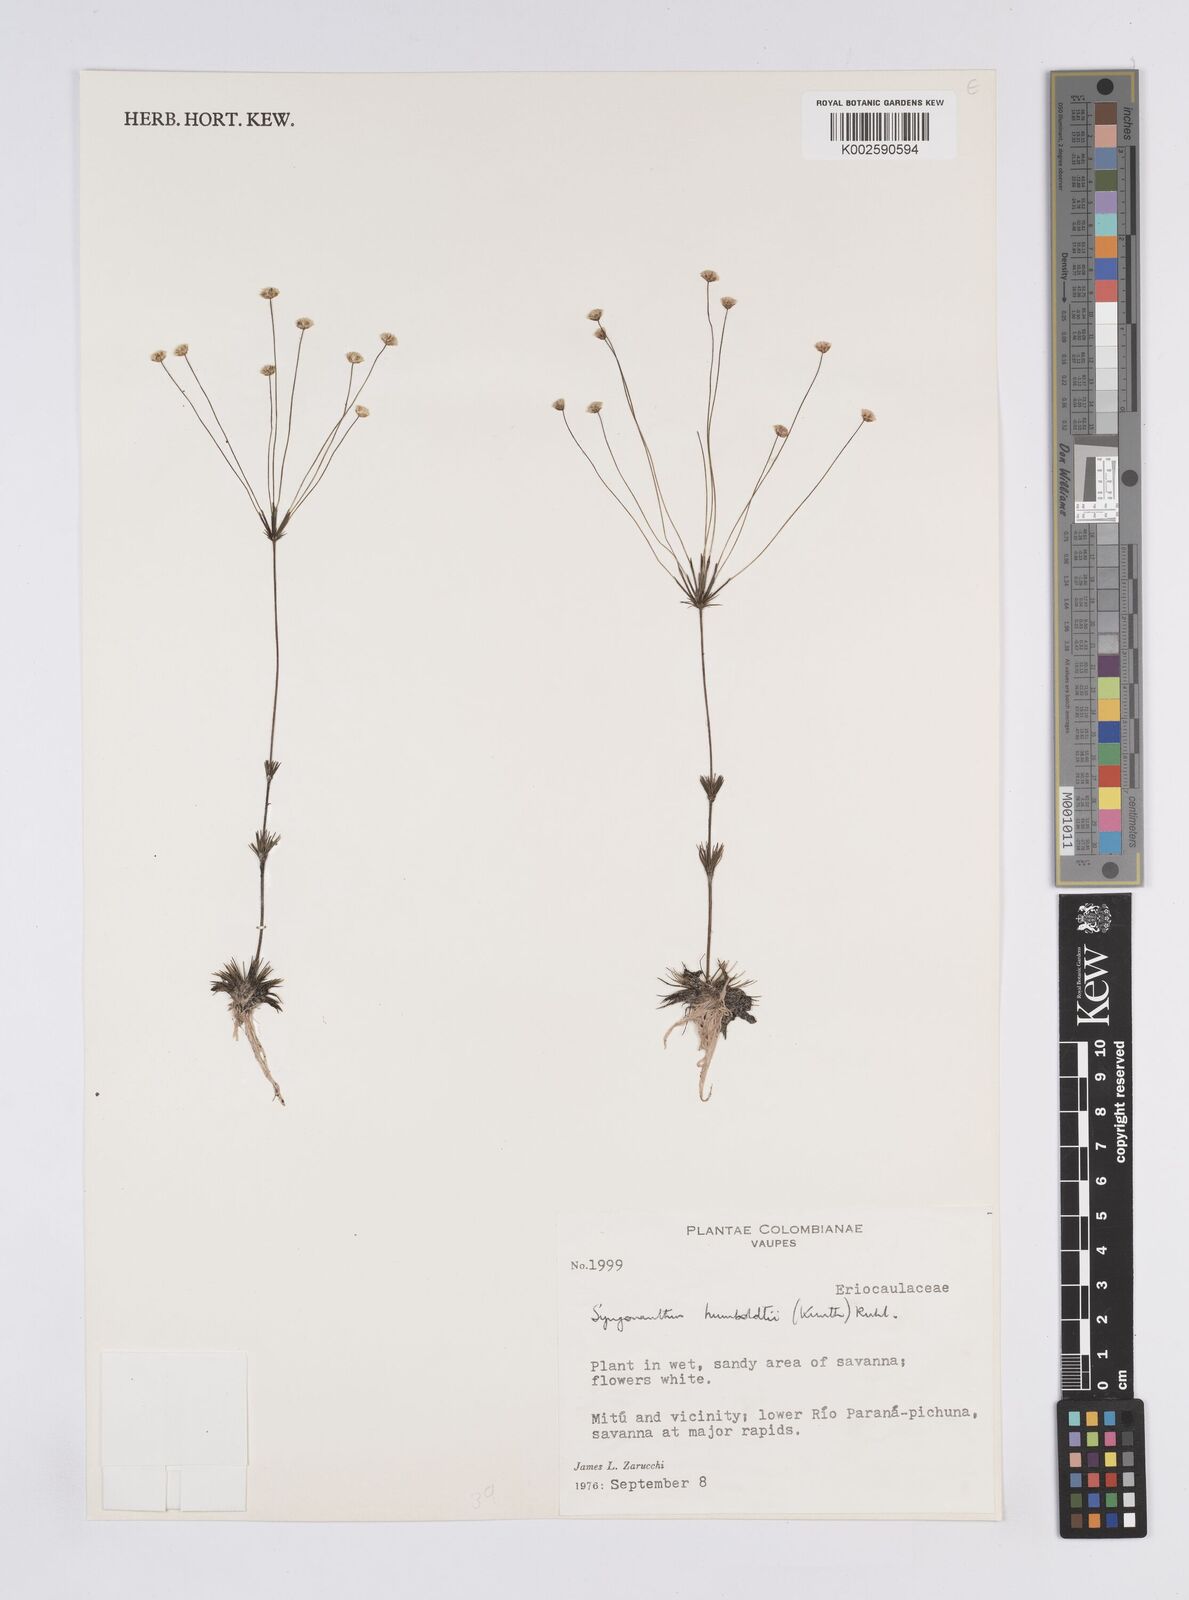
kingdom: Plantae
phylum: Tracheophyta
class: Liliopsida
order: Poales
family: Eriocaulaceae
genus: Syngonanthus
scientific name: Syngonanthus humboldtii
